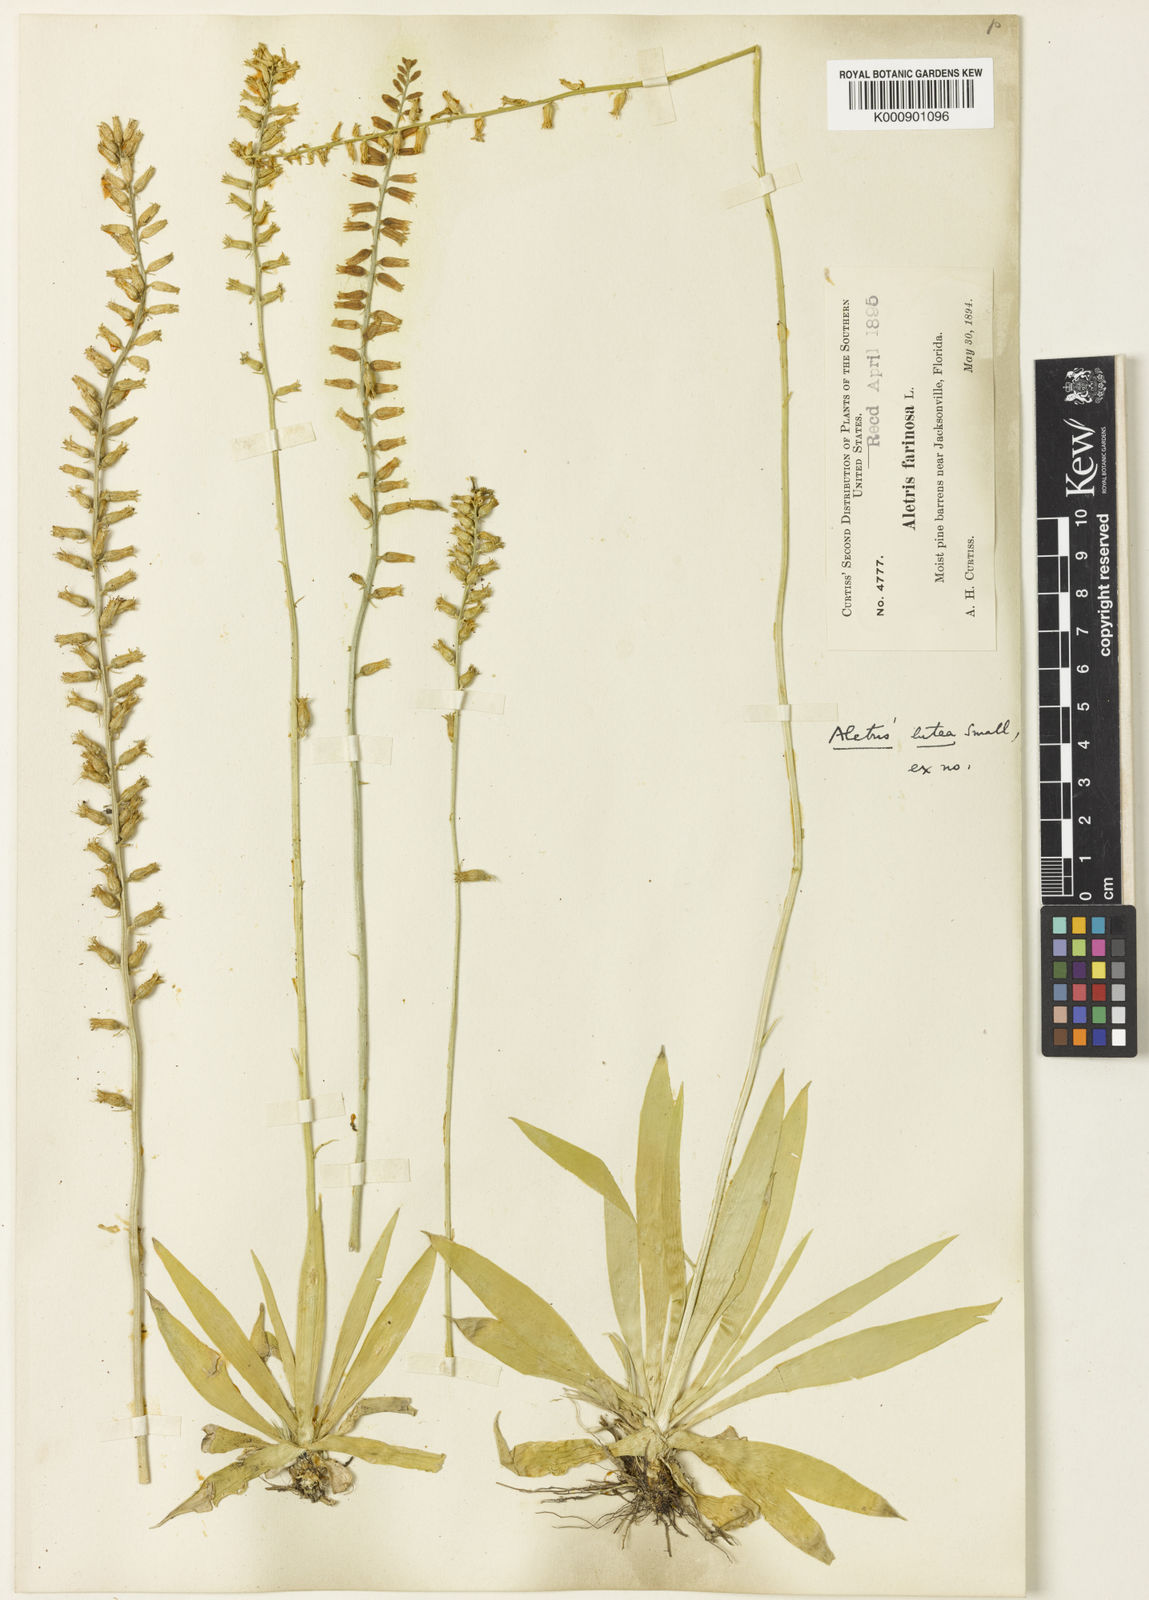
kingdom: Plantae
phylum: Tracheophyta
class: Liliopsida
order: Dioscoreales
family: Nartheciaceae
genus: Aletris
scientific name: Aletris lutea
